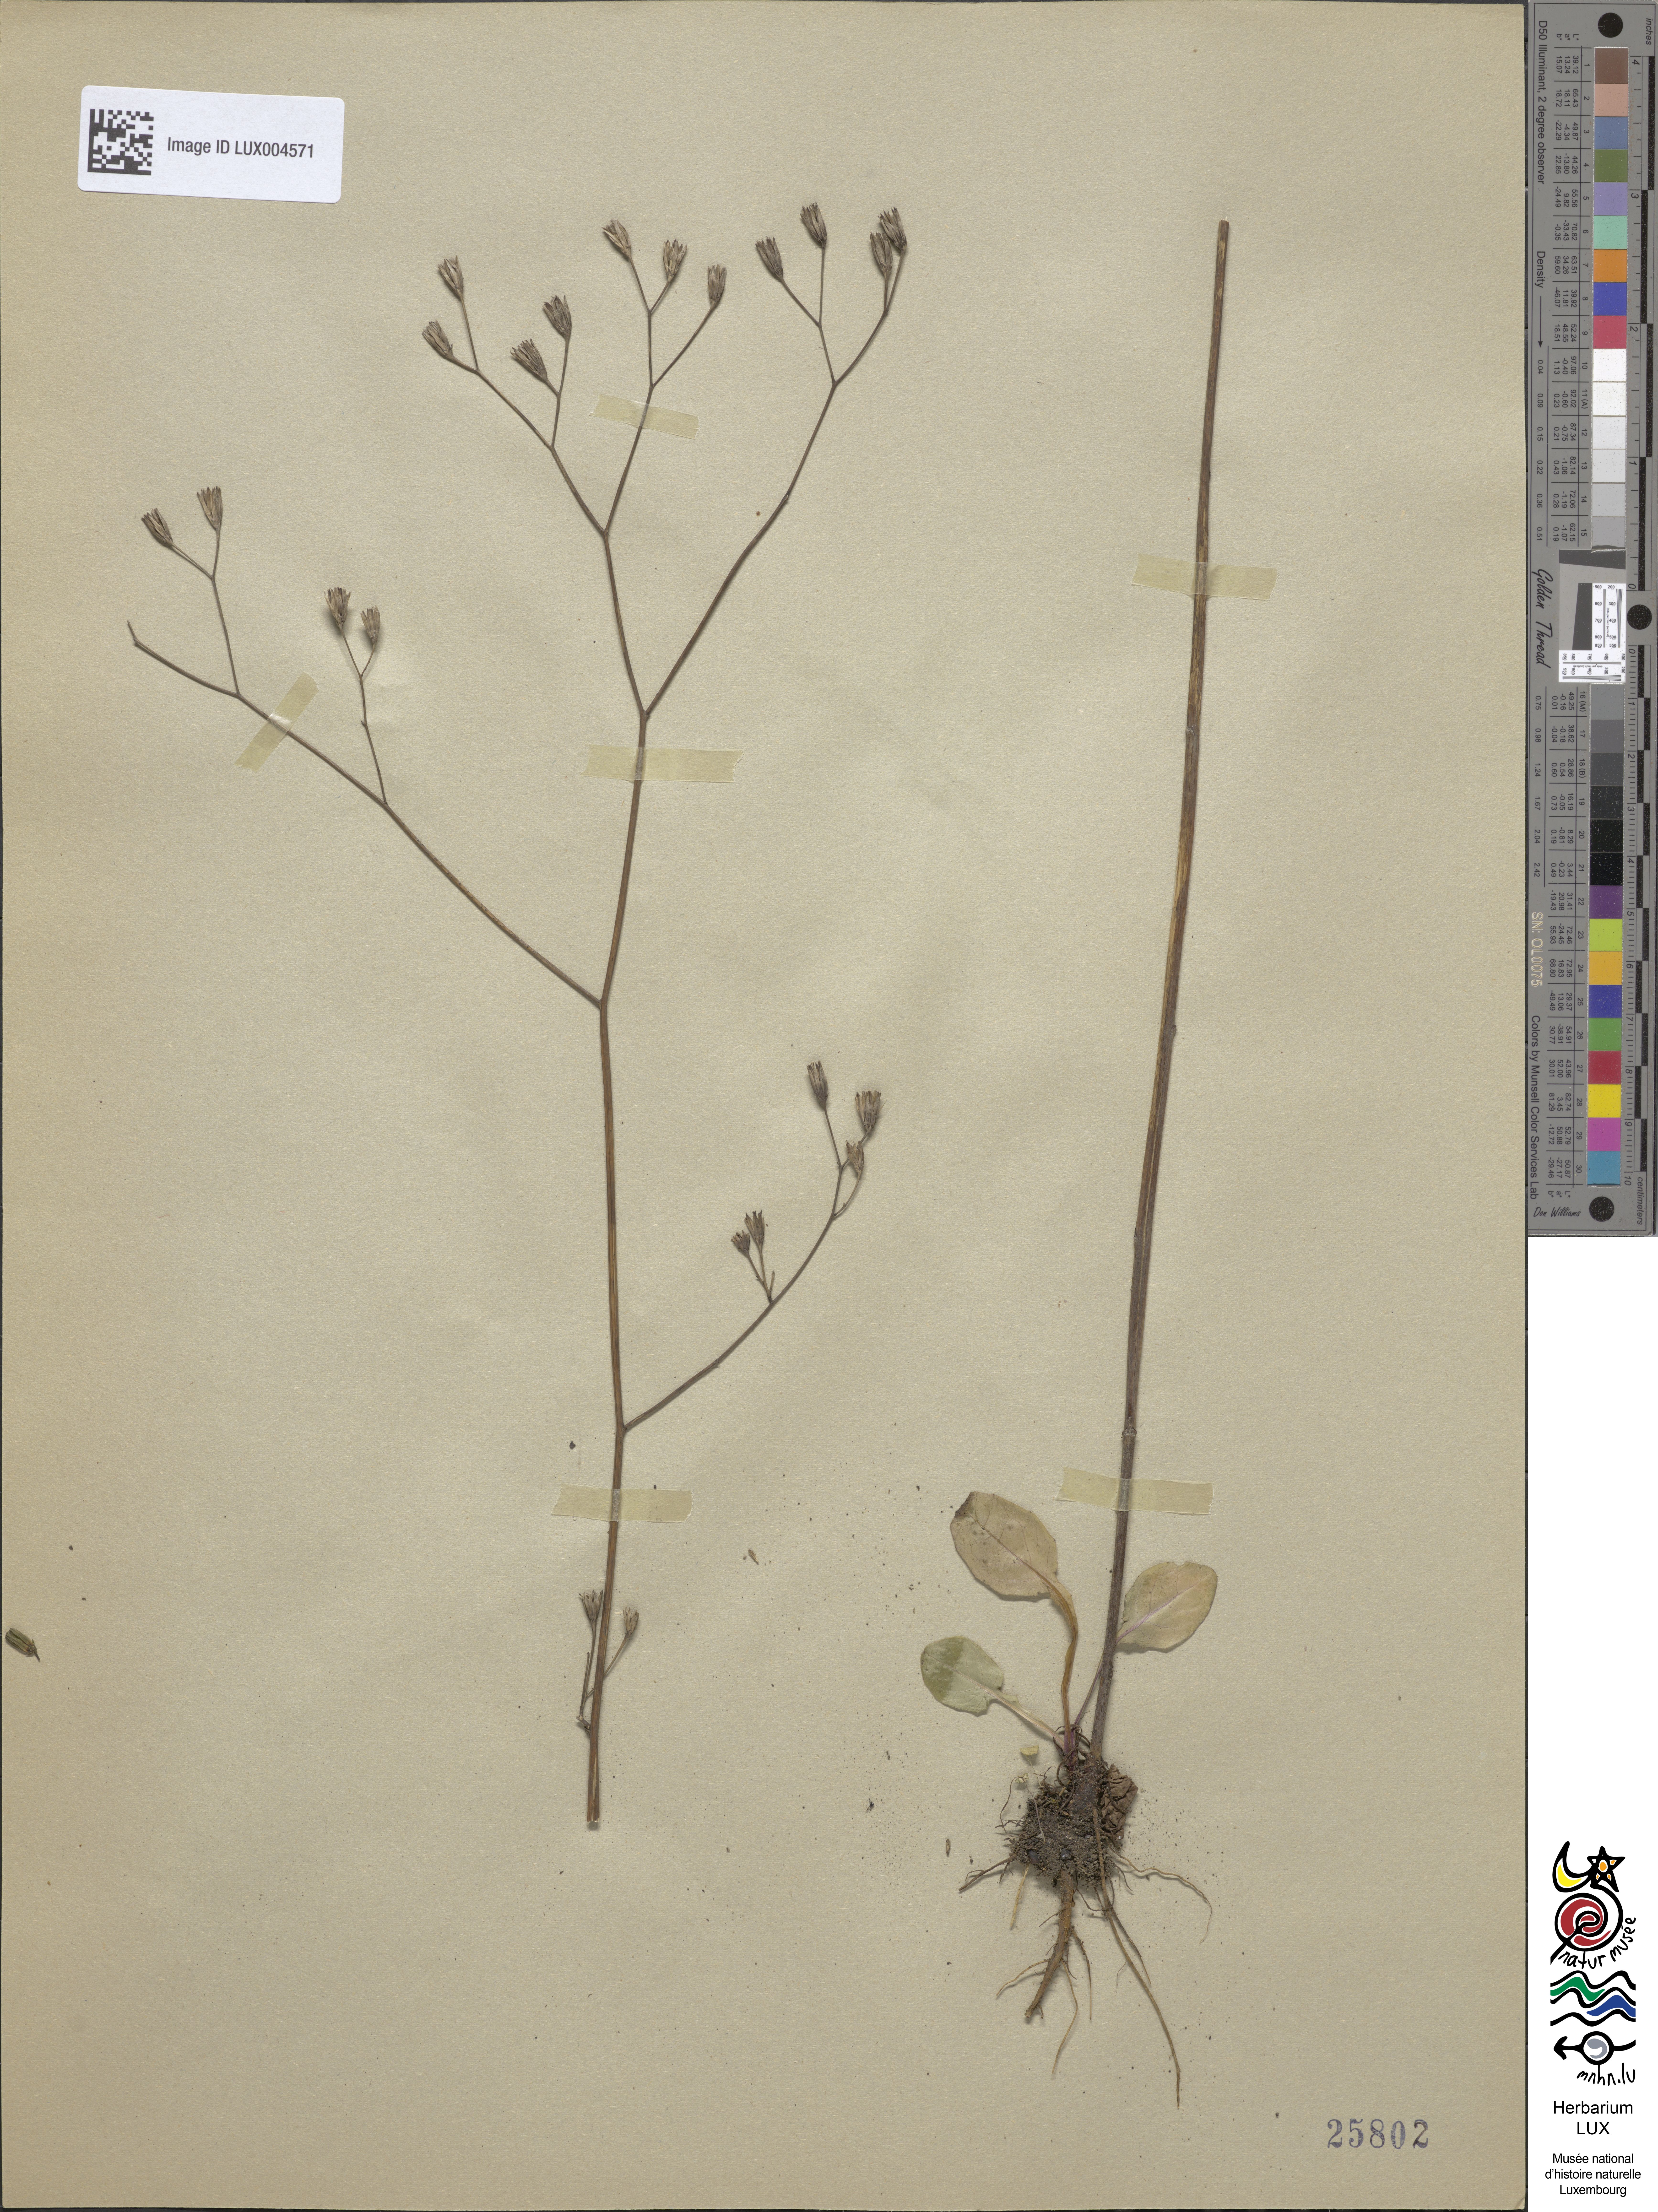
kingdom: Plantae
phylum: Tracheophyta
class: Magnoliopsida
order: Asterales
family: Asteraceae
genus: Lapsana
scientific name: Lapsana communis
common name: Nipplewort
